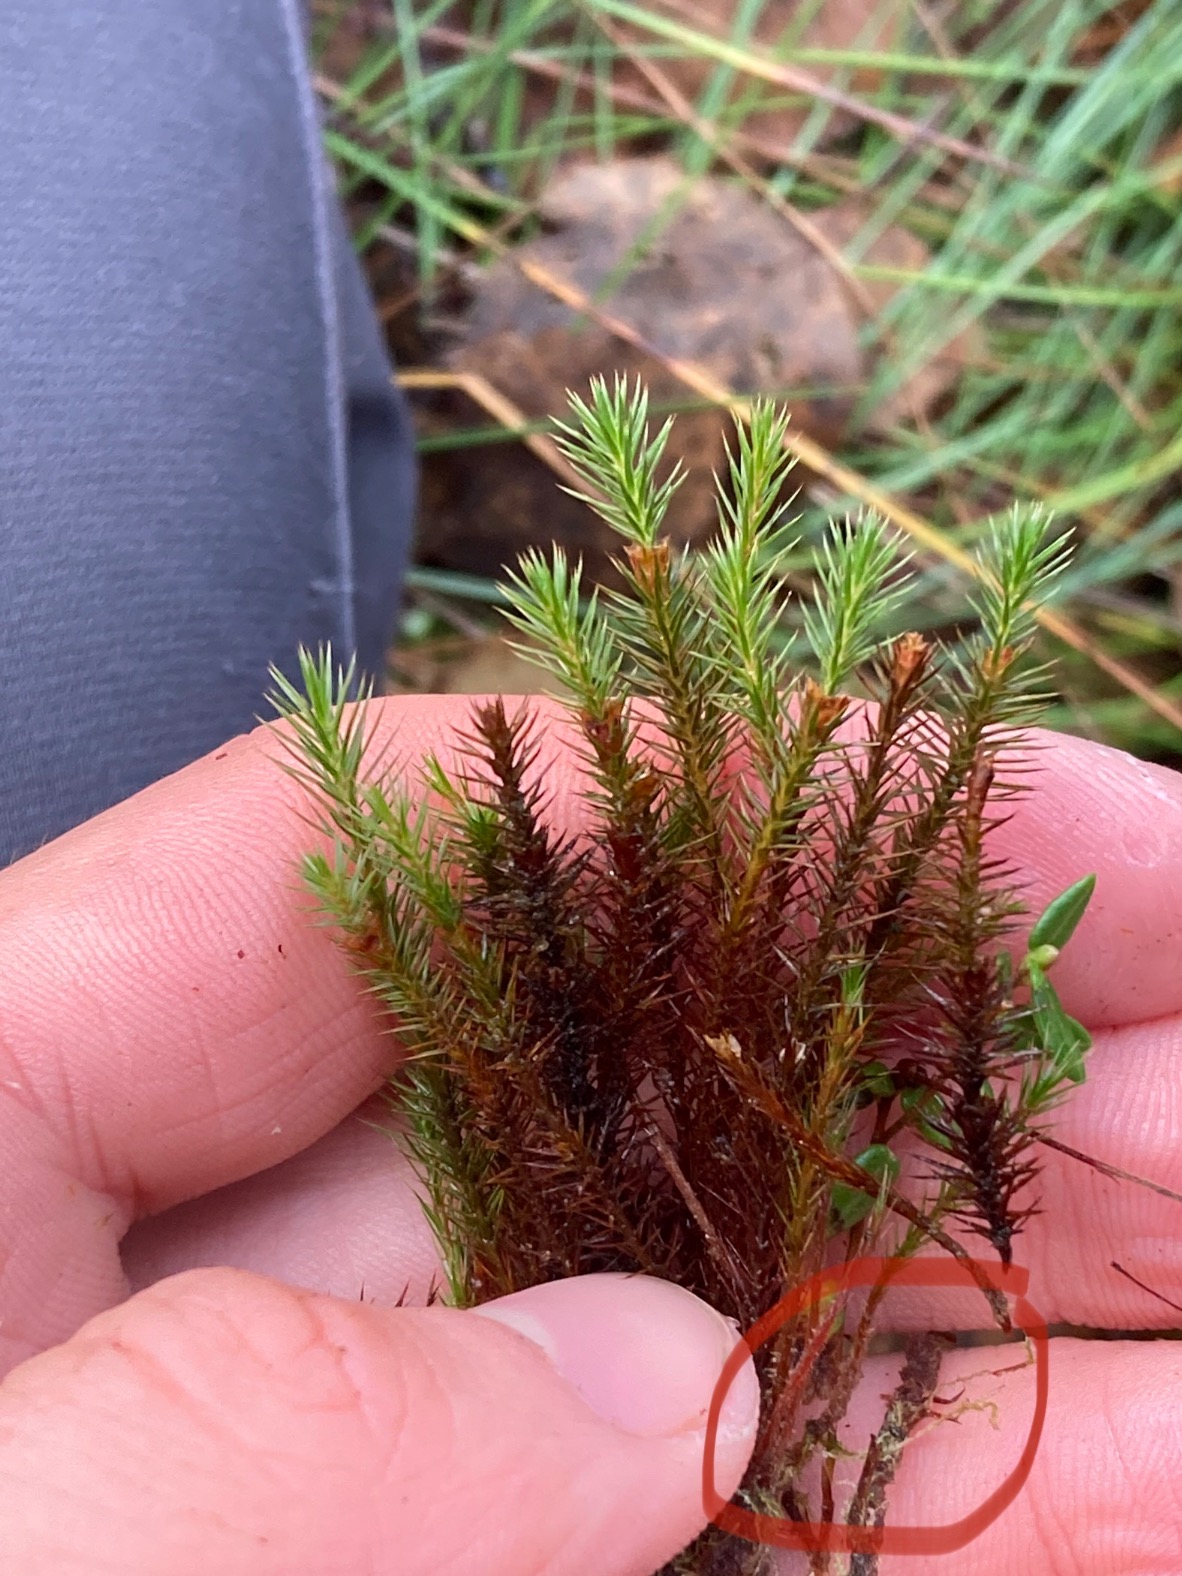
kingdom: Plantae
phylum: Marchantiophyta
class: Jungermanniopsida
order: Jungermanniales
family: Cephaloziaceae
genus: Fuscocephaloziopsis
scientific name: Fuscocephaloziopsis connivens
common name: Flad kantbæger
